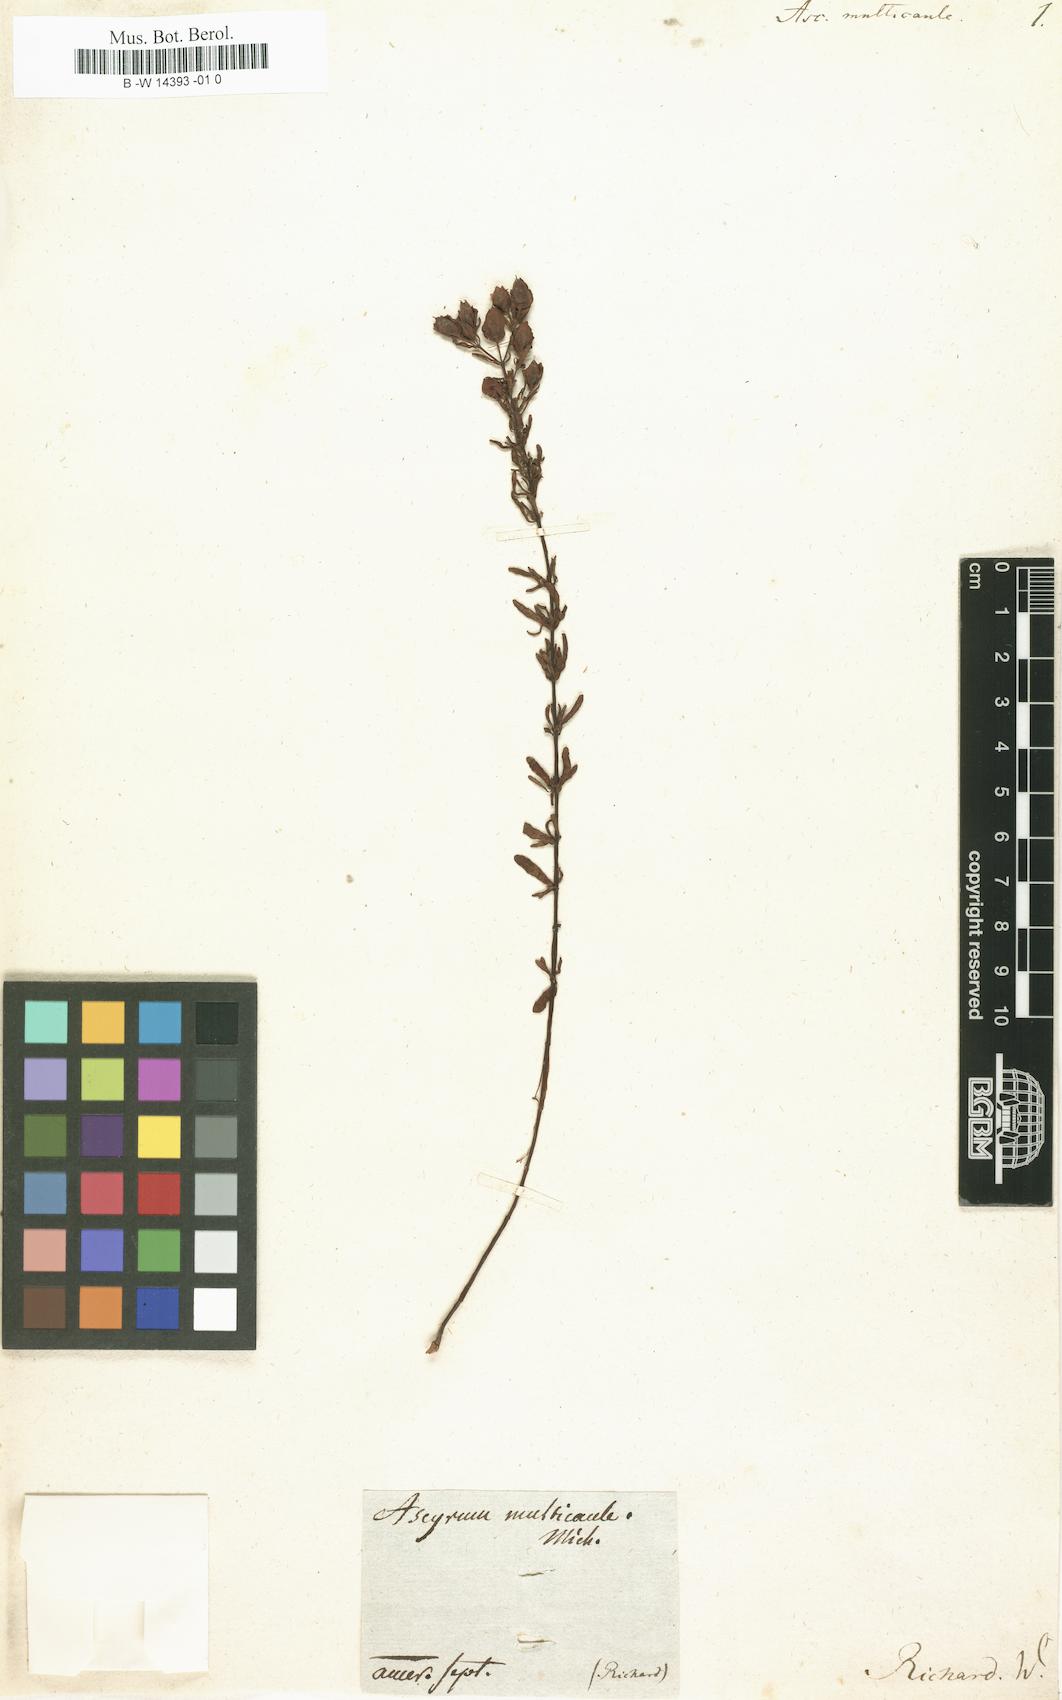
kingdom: Plantae
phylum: Tracheophyta
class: Magnoliopsida
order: Malpighiales
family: Hypericaceae
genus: Hypericum
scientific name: Hypericum hypericoides
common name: St. andrew's cross
